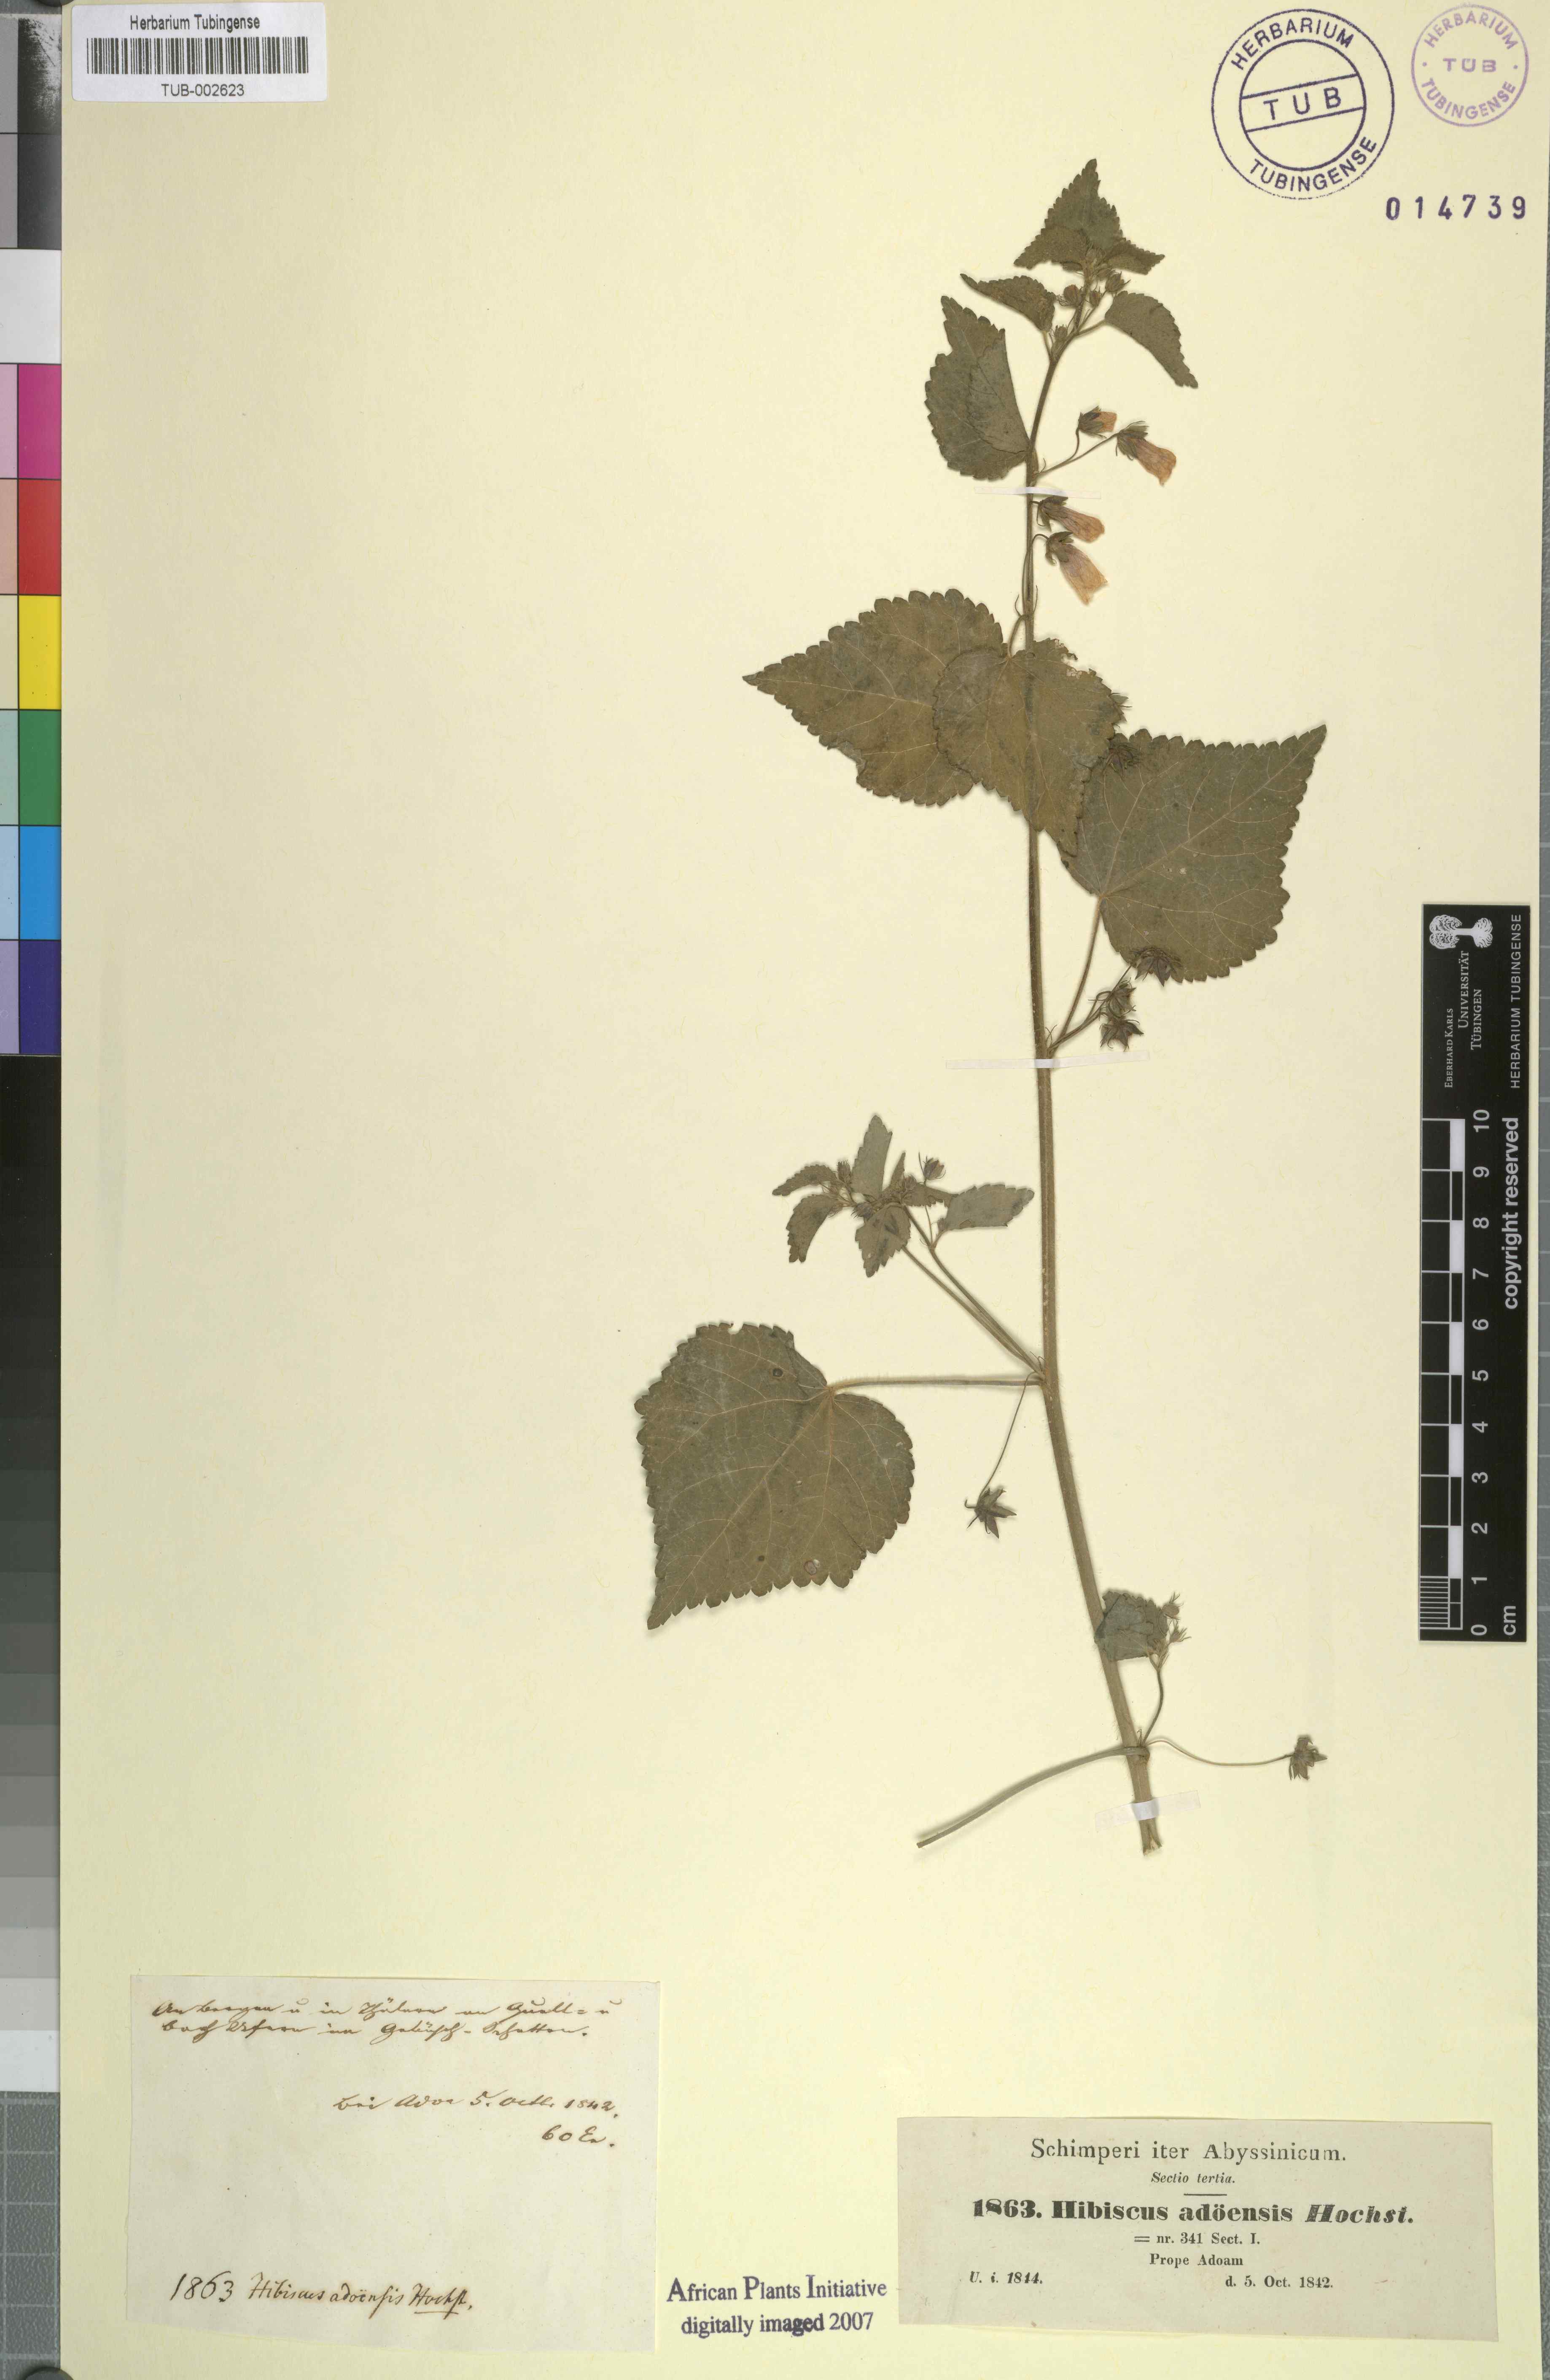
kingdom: Plantae
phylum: Tracheophyta
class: Magnoliopsida
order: Malvales
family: Malvaceae
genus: Kosteletzkya
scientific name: Kosteletzkya adoensis
